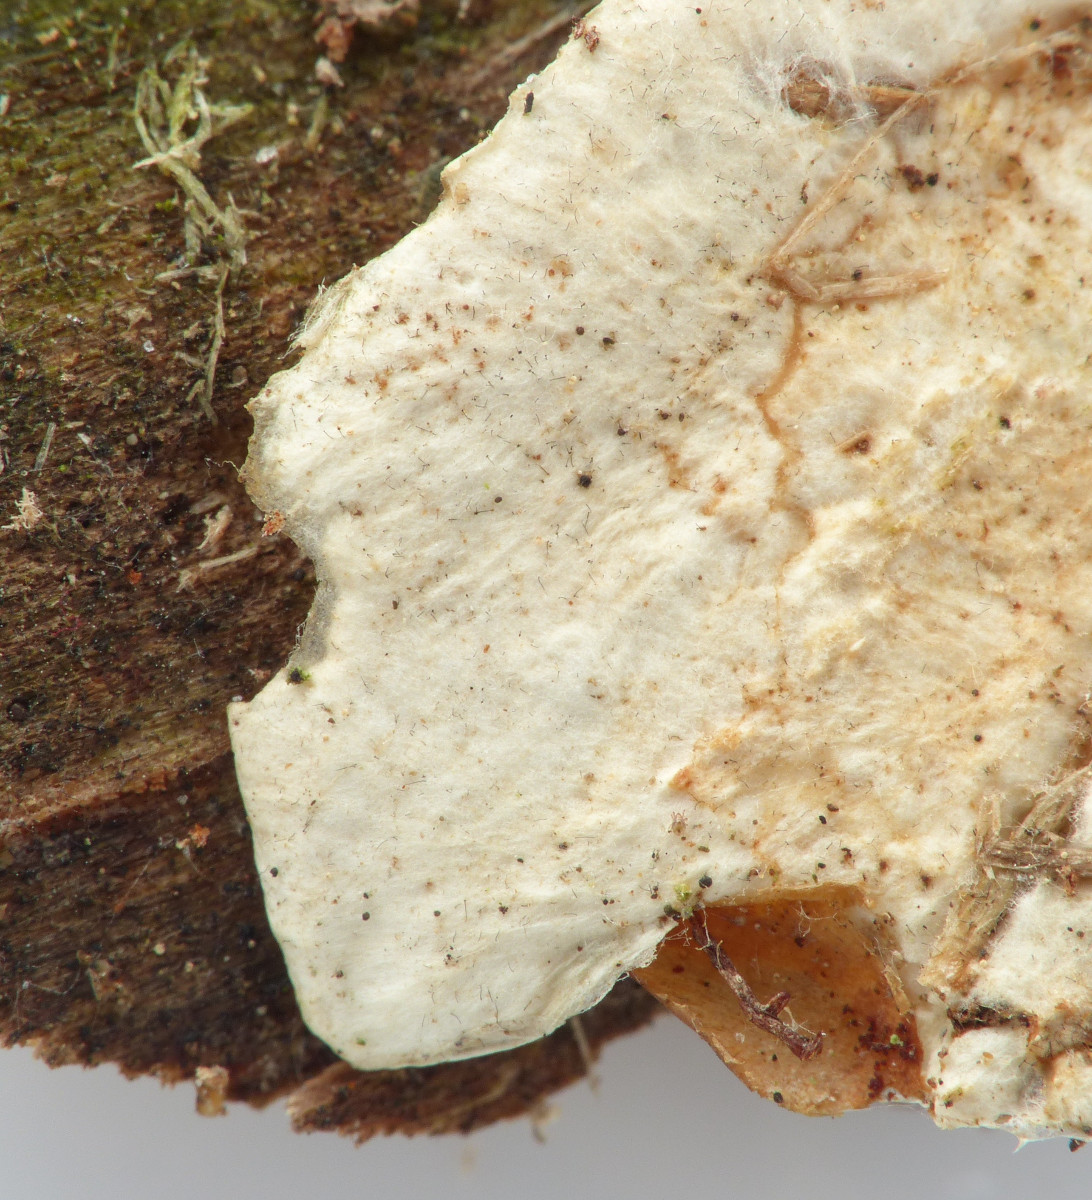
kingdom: Fungi
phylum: Basidiomycota
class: Agaricomycetes
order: Polyporales
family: Incrustoporiaceae
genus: Skeletocutis
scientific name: Skeletocutis
